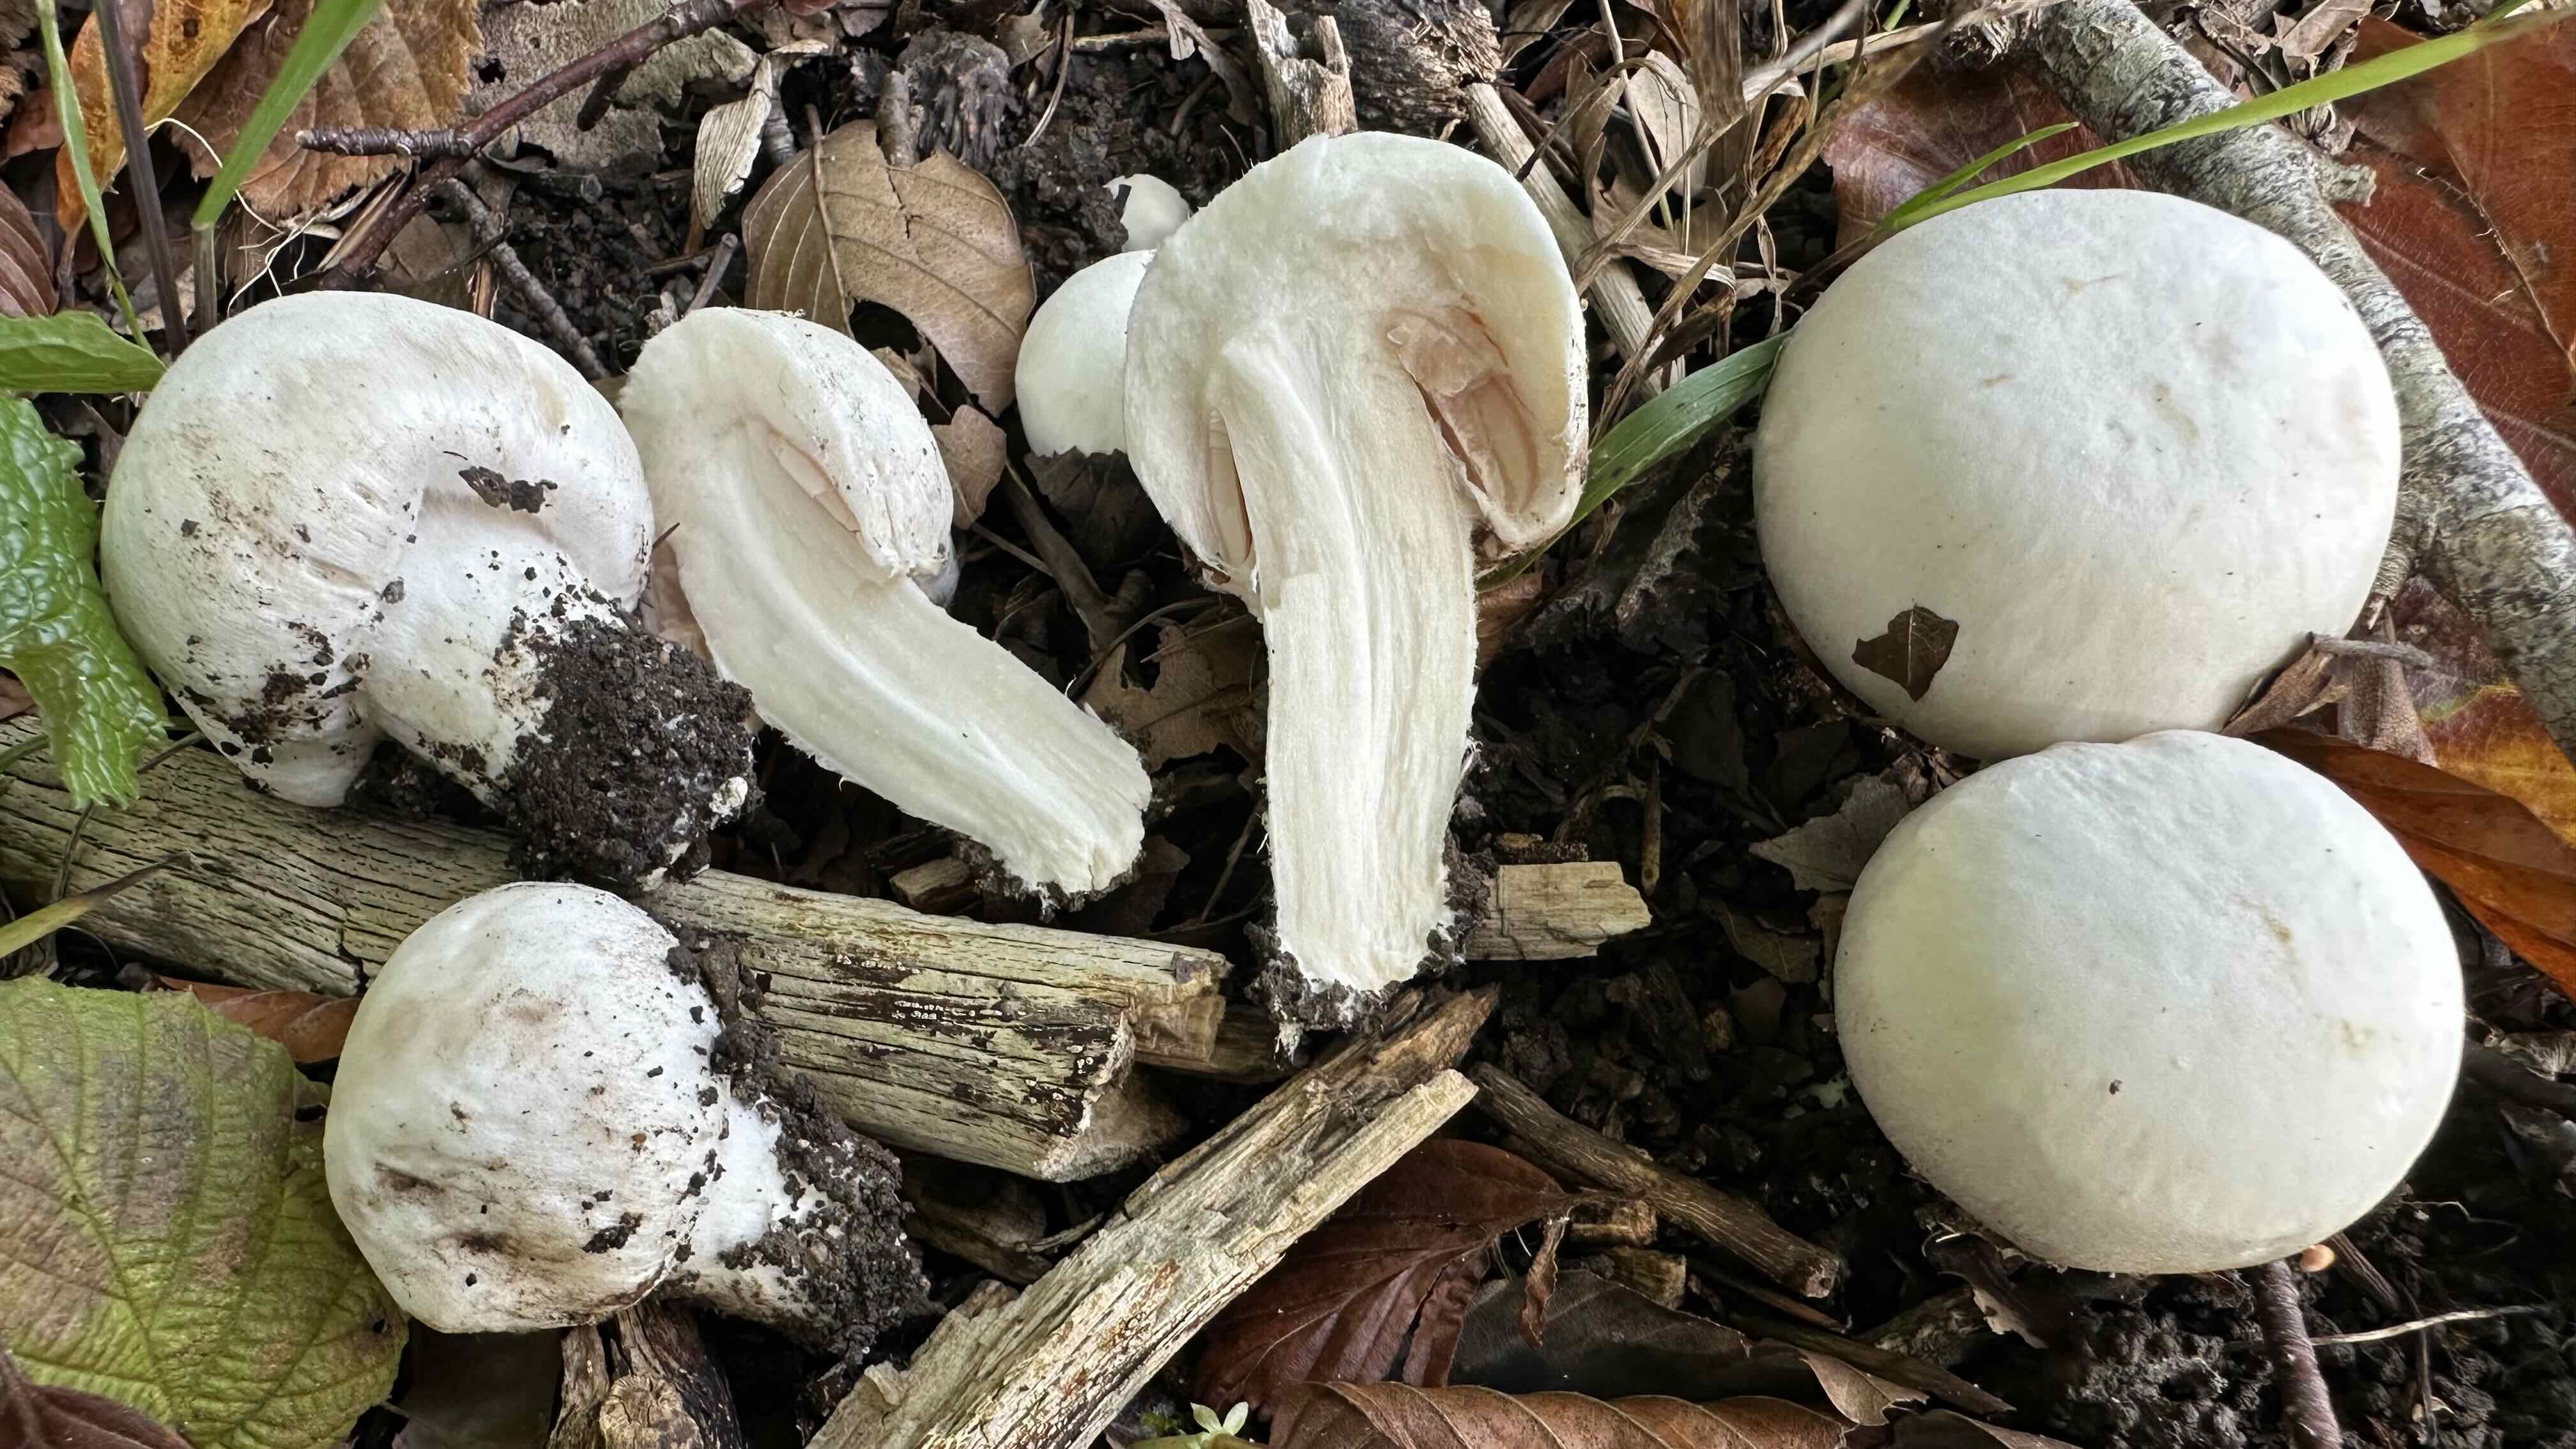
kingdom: Fungi
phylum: Basidiomycota
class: Agaricomycetes
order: Agaricales
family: Agaricaceae
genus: Agaricus
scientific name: Agaricus campestris
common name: mark-champignon
